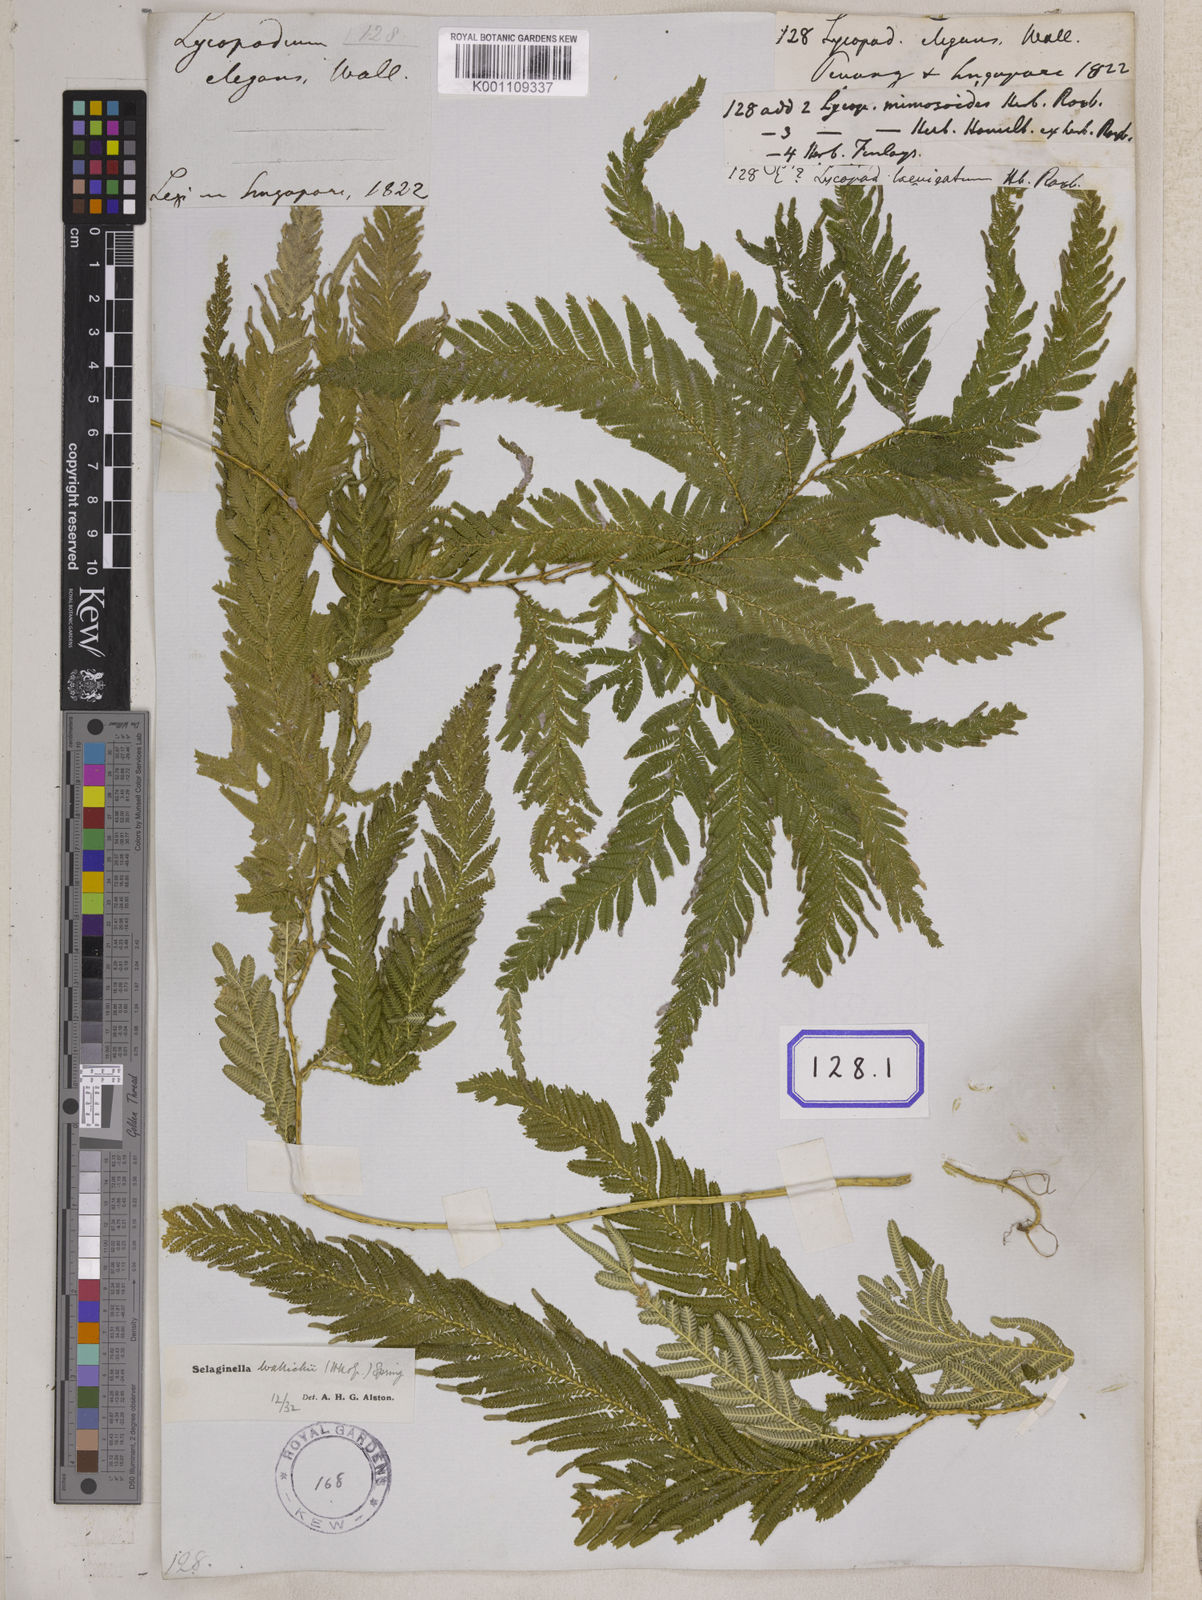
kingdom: Plantae
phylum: Tracheophyta
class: Lycopodiopsida
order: Selaginellales
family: Selaginellaceae
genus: Selaginella
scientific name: Selaginella wallichii
